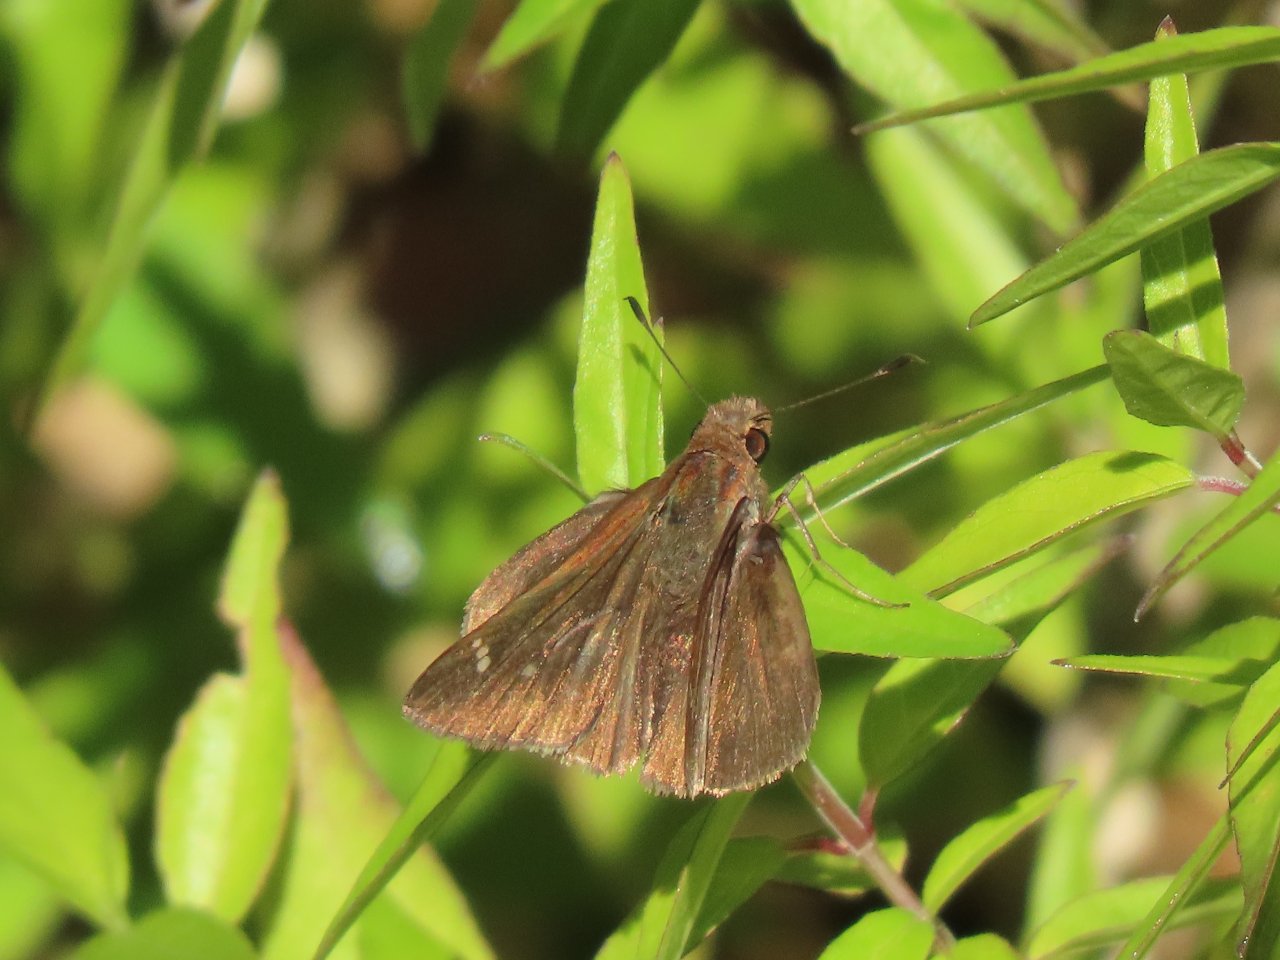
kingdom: Animalia
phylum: Arthropoda
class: Insecta
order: Lepidoptera
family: Hesperiidae
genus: Lerema
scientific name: Lerema accius
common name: Clouded Skipper
